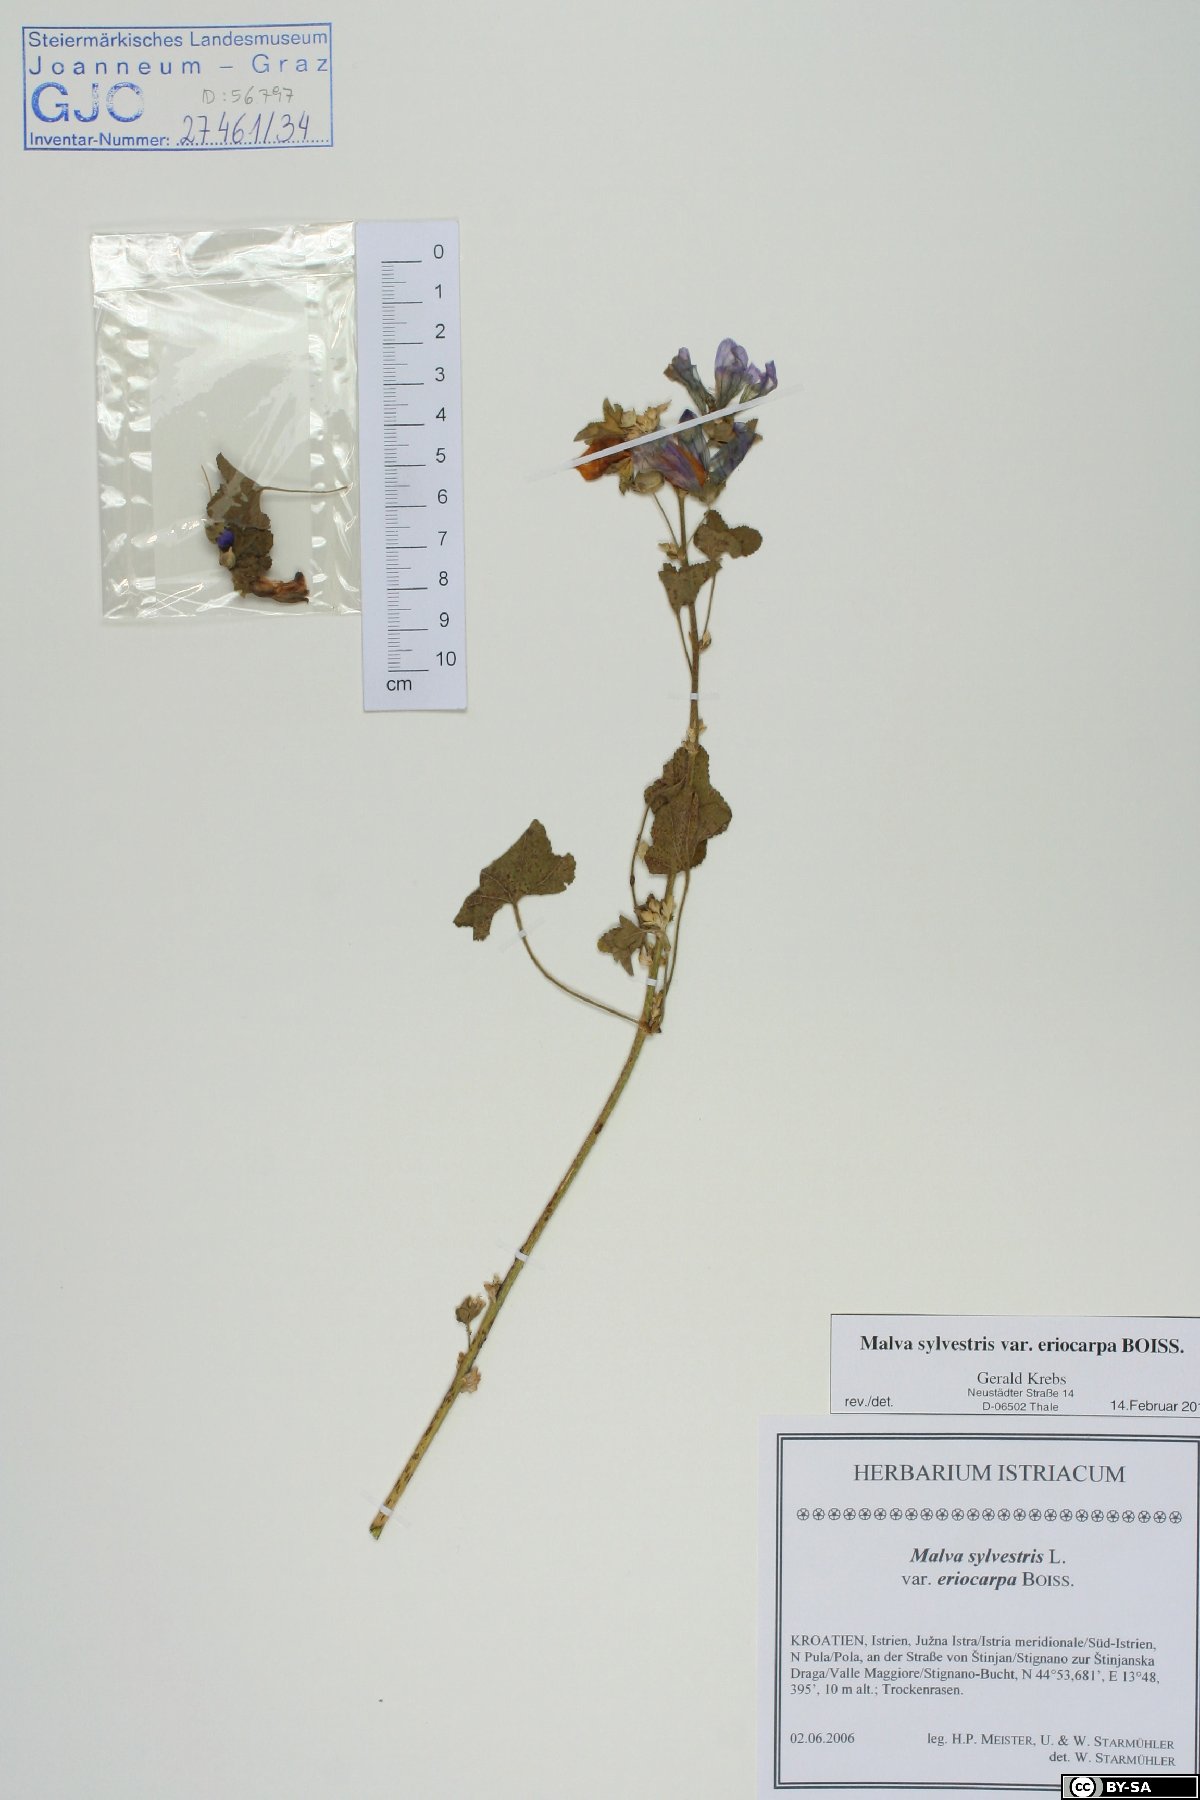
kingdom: Plantae
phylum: Tracheophyta
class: Magnoliopsida
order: Malvales
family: Malvaceae
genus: Malva
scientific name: Malva sylvestris
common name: Common mallow
